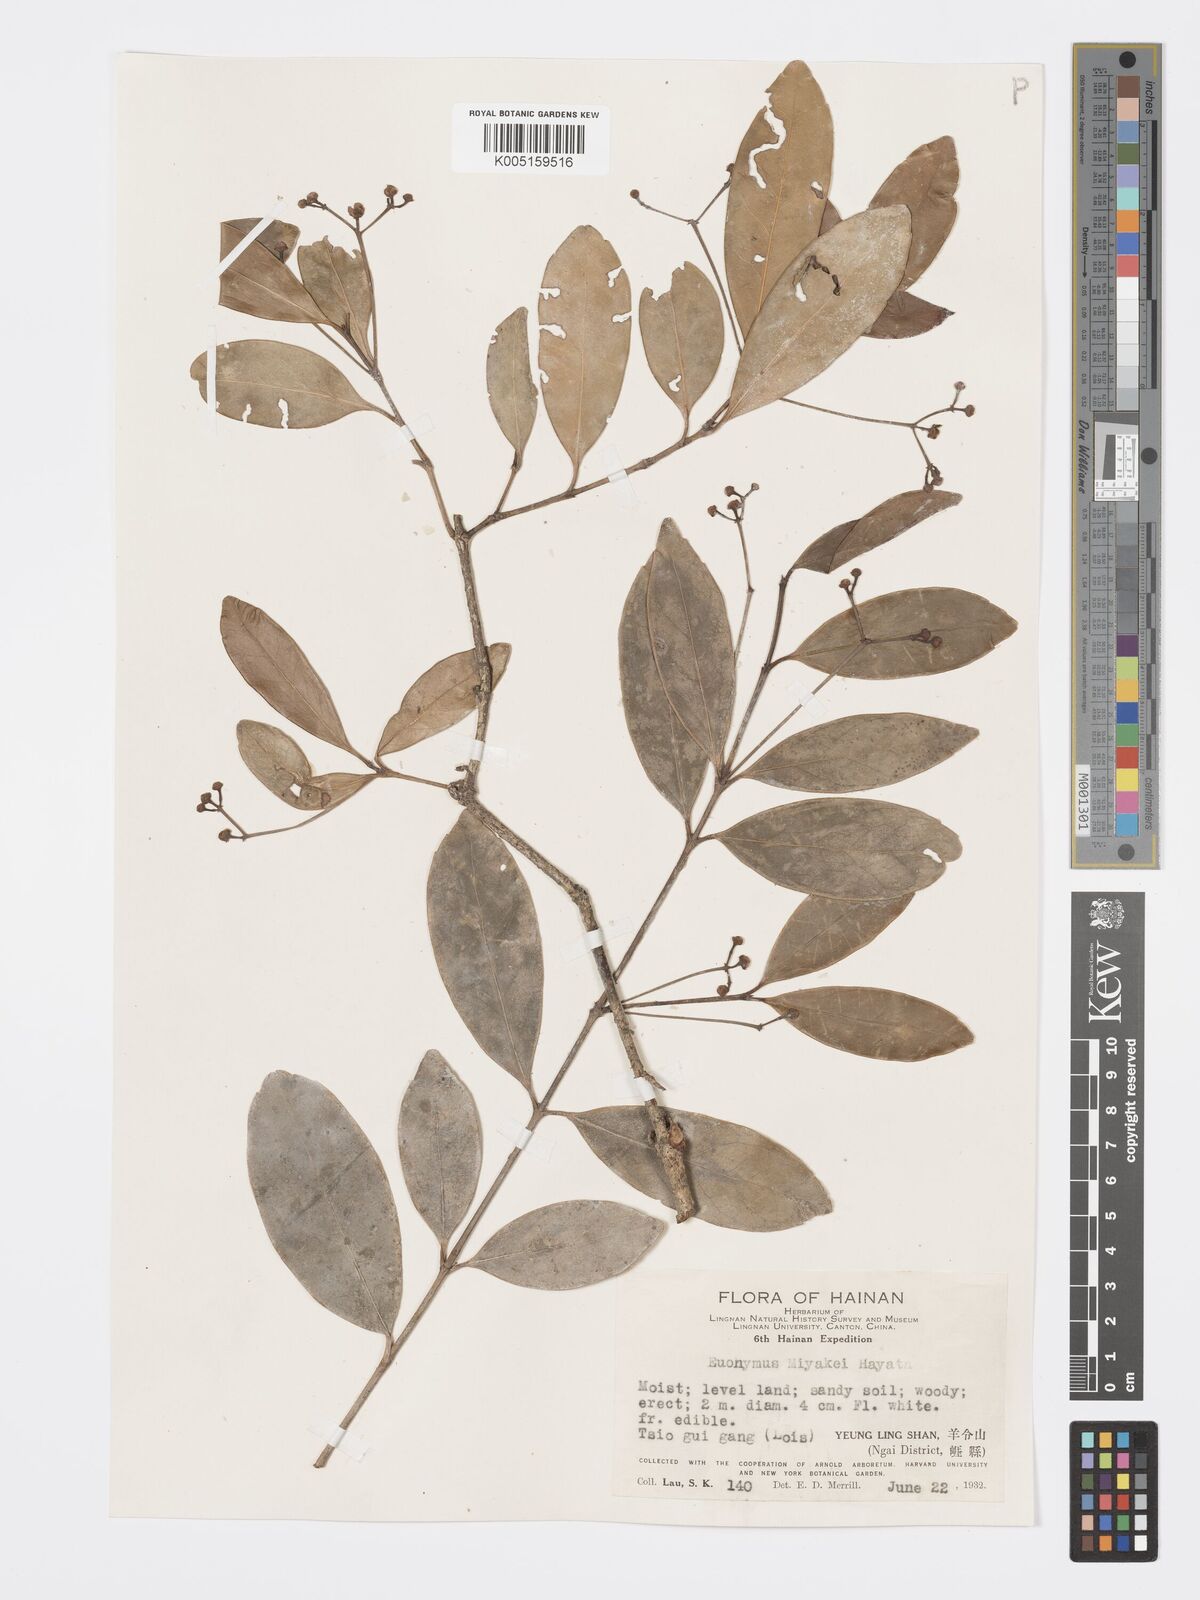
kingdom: Plantae
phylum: Tracheophyta
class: Magnoliopsida
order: Celastrales
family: Celastraceae
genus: Euonymus
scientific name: Euonymus cochinchinensis
